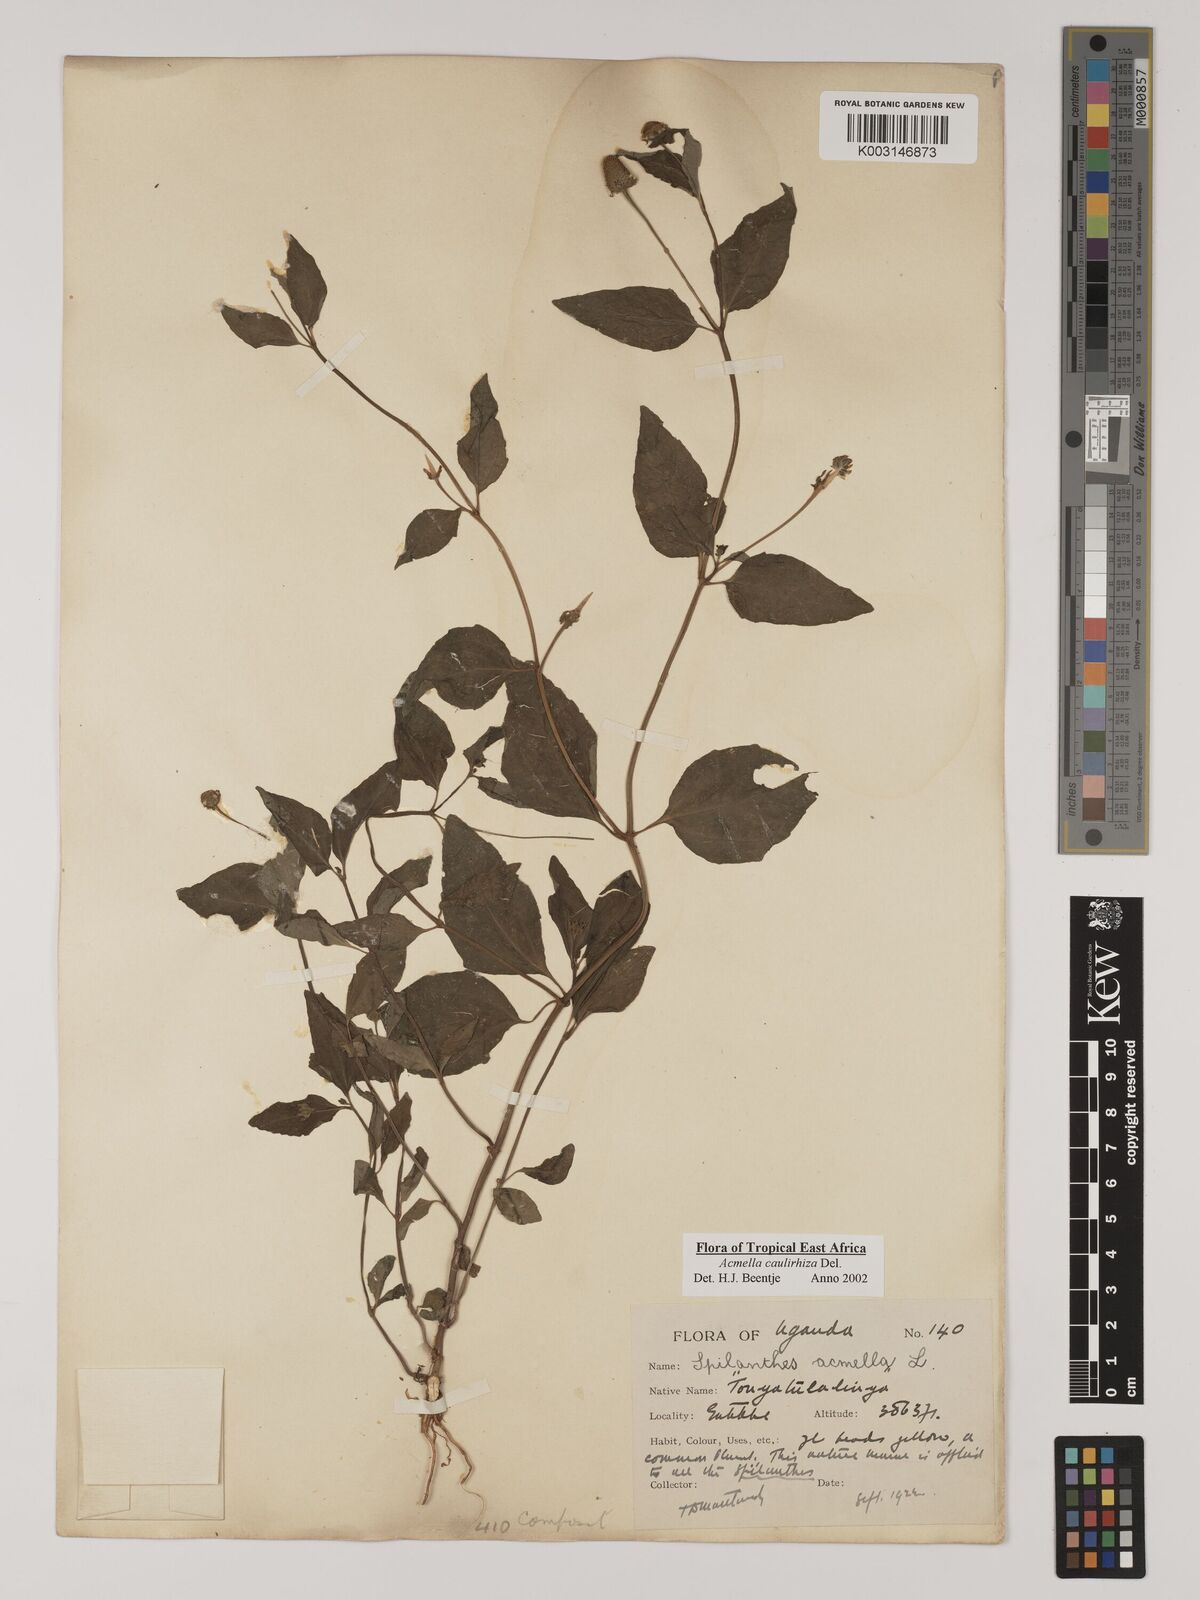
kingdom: Plantae
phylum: Tracheophyta
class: Magnoliopsida
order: Asterales
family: Asteraceae
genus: Acmella
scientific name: Acmella caulirhiza
